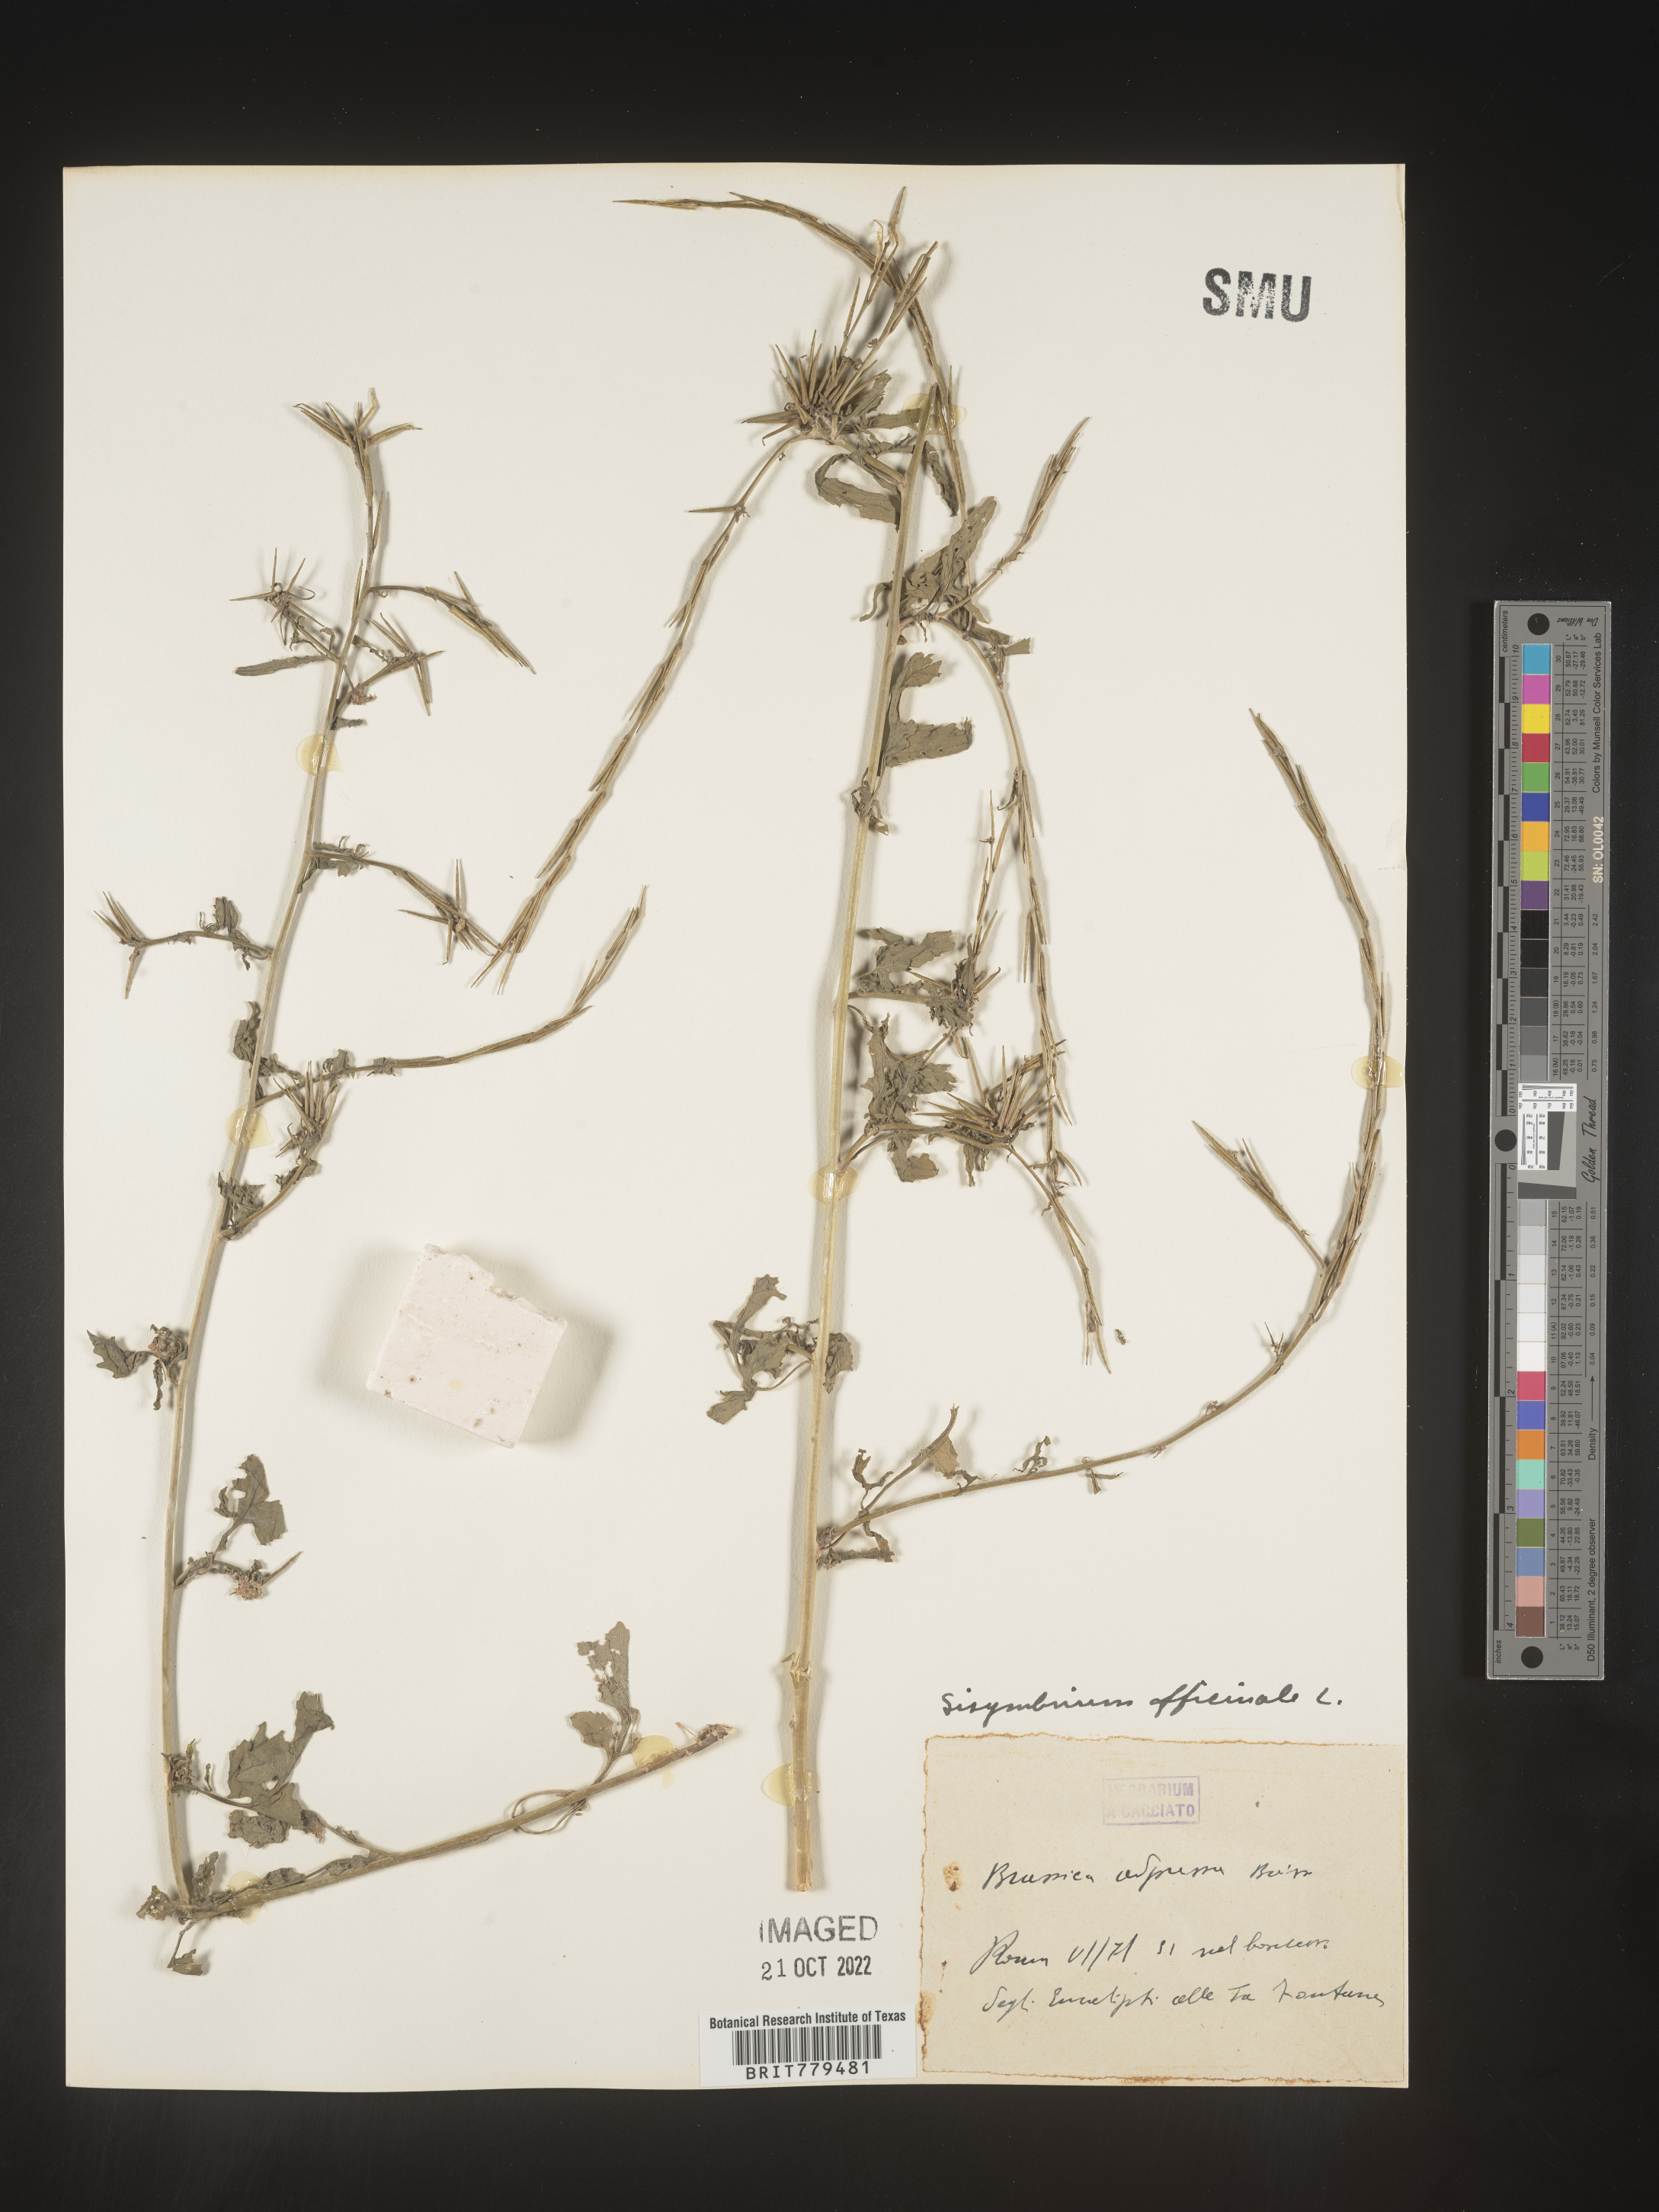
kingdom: Plantae
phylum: Tracheophyta
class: Magnoliopsida
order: Brassicales
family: Brassicaceae
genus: Sisymbrium
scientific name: Sisymbrium
